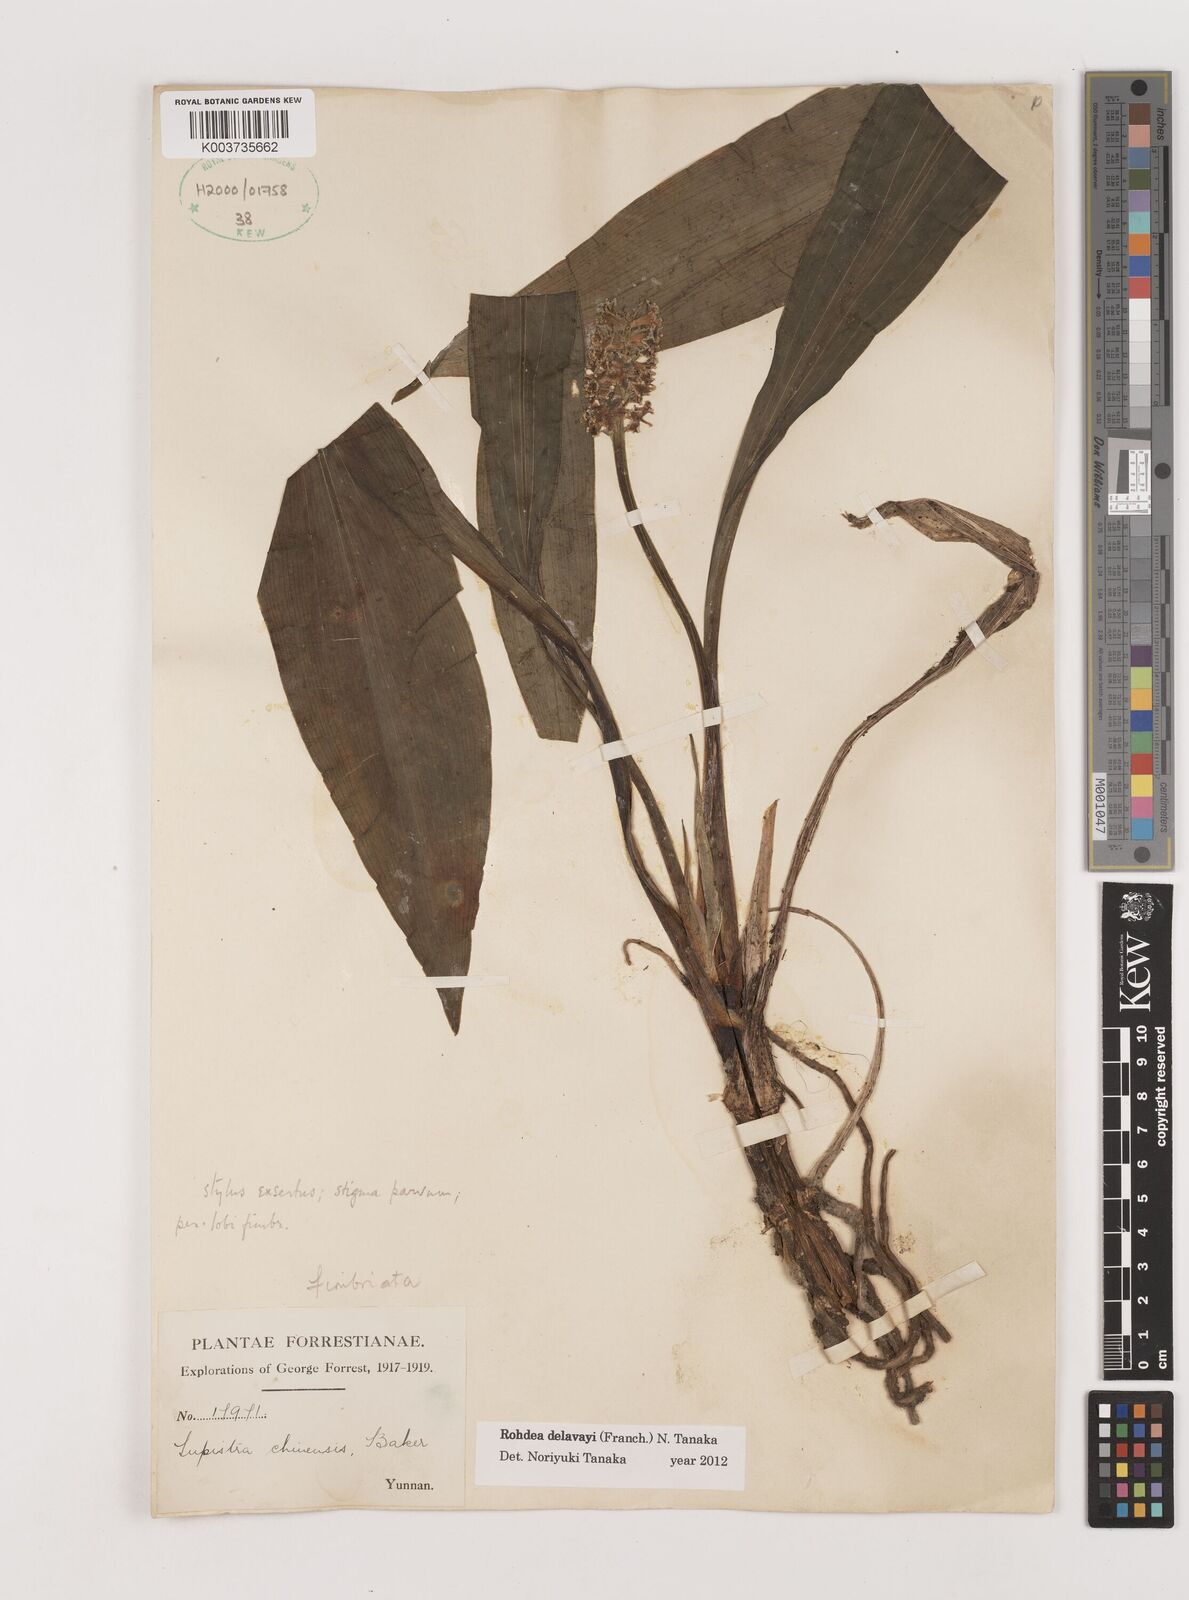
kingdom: Plantae
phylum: Tracheophyta
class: Liliopsida
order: Asparagales
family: Asparagaceae
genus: Rohdea
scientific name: Rohdea delavayi
